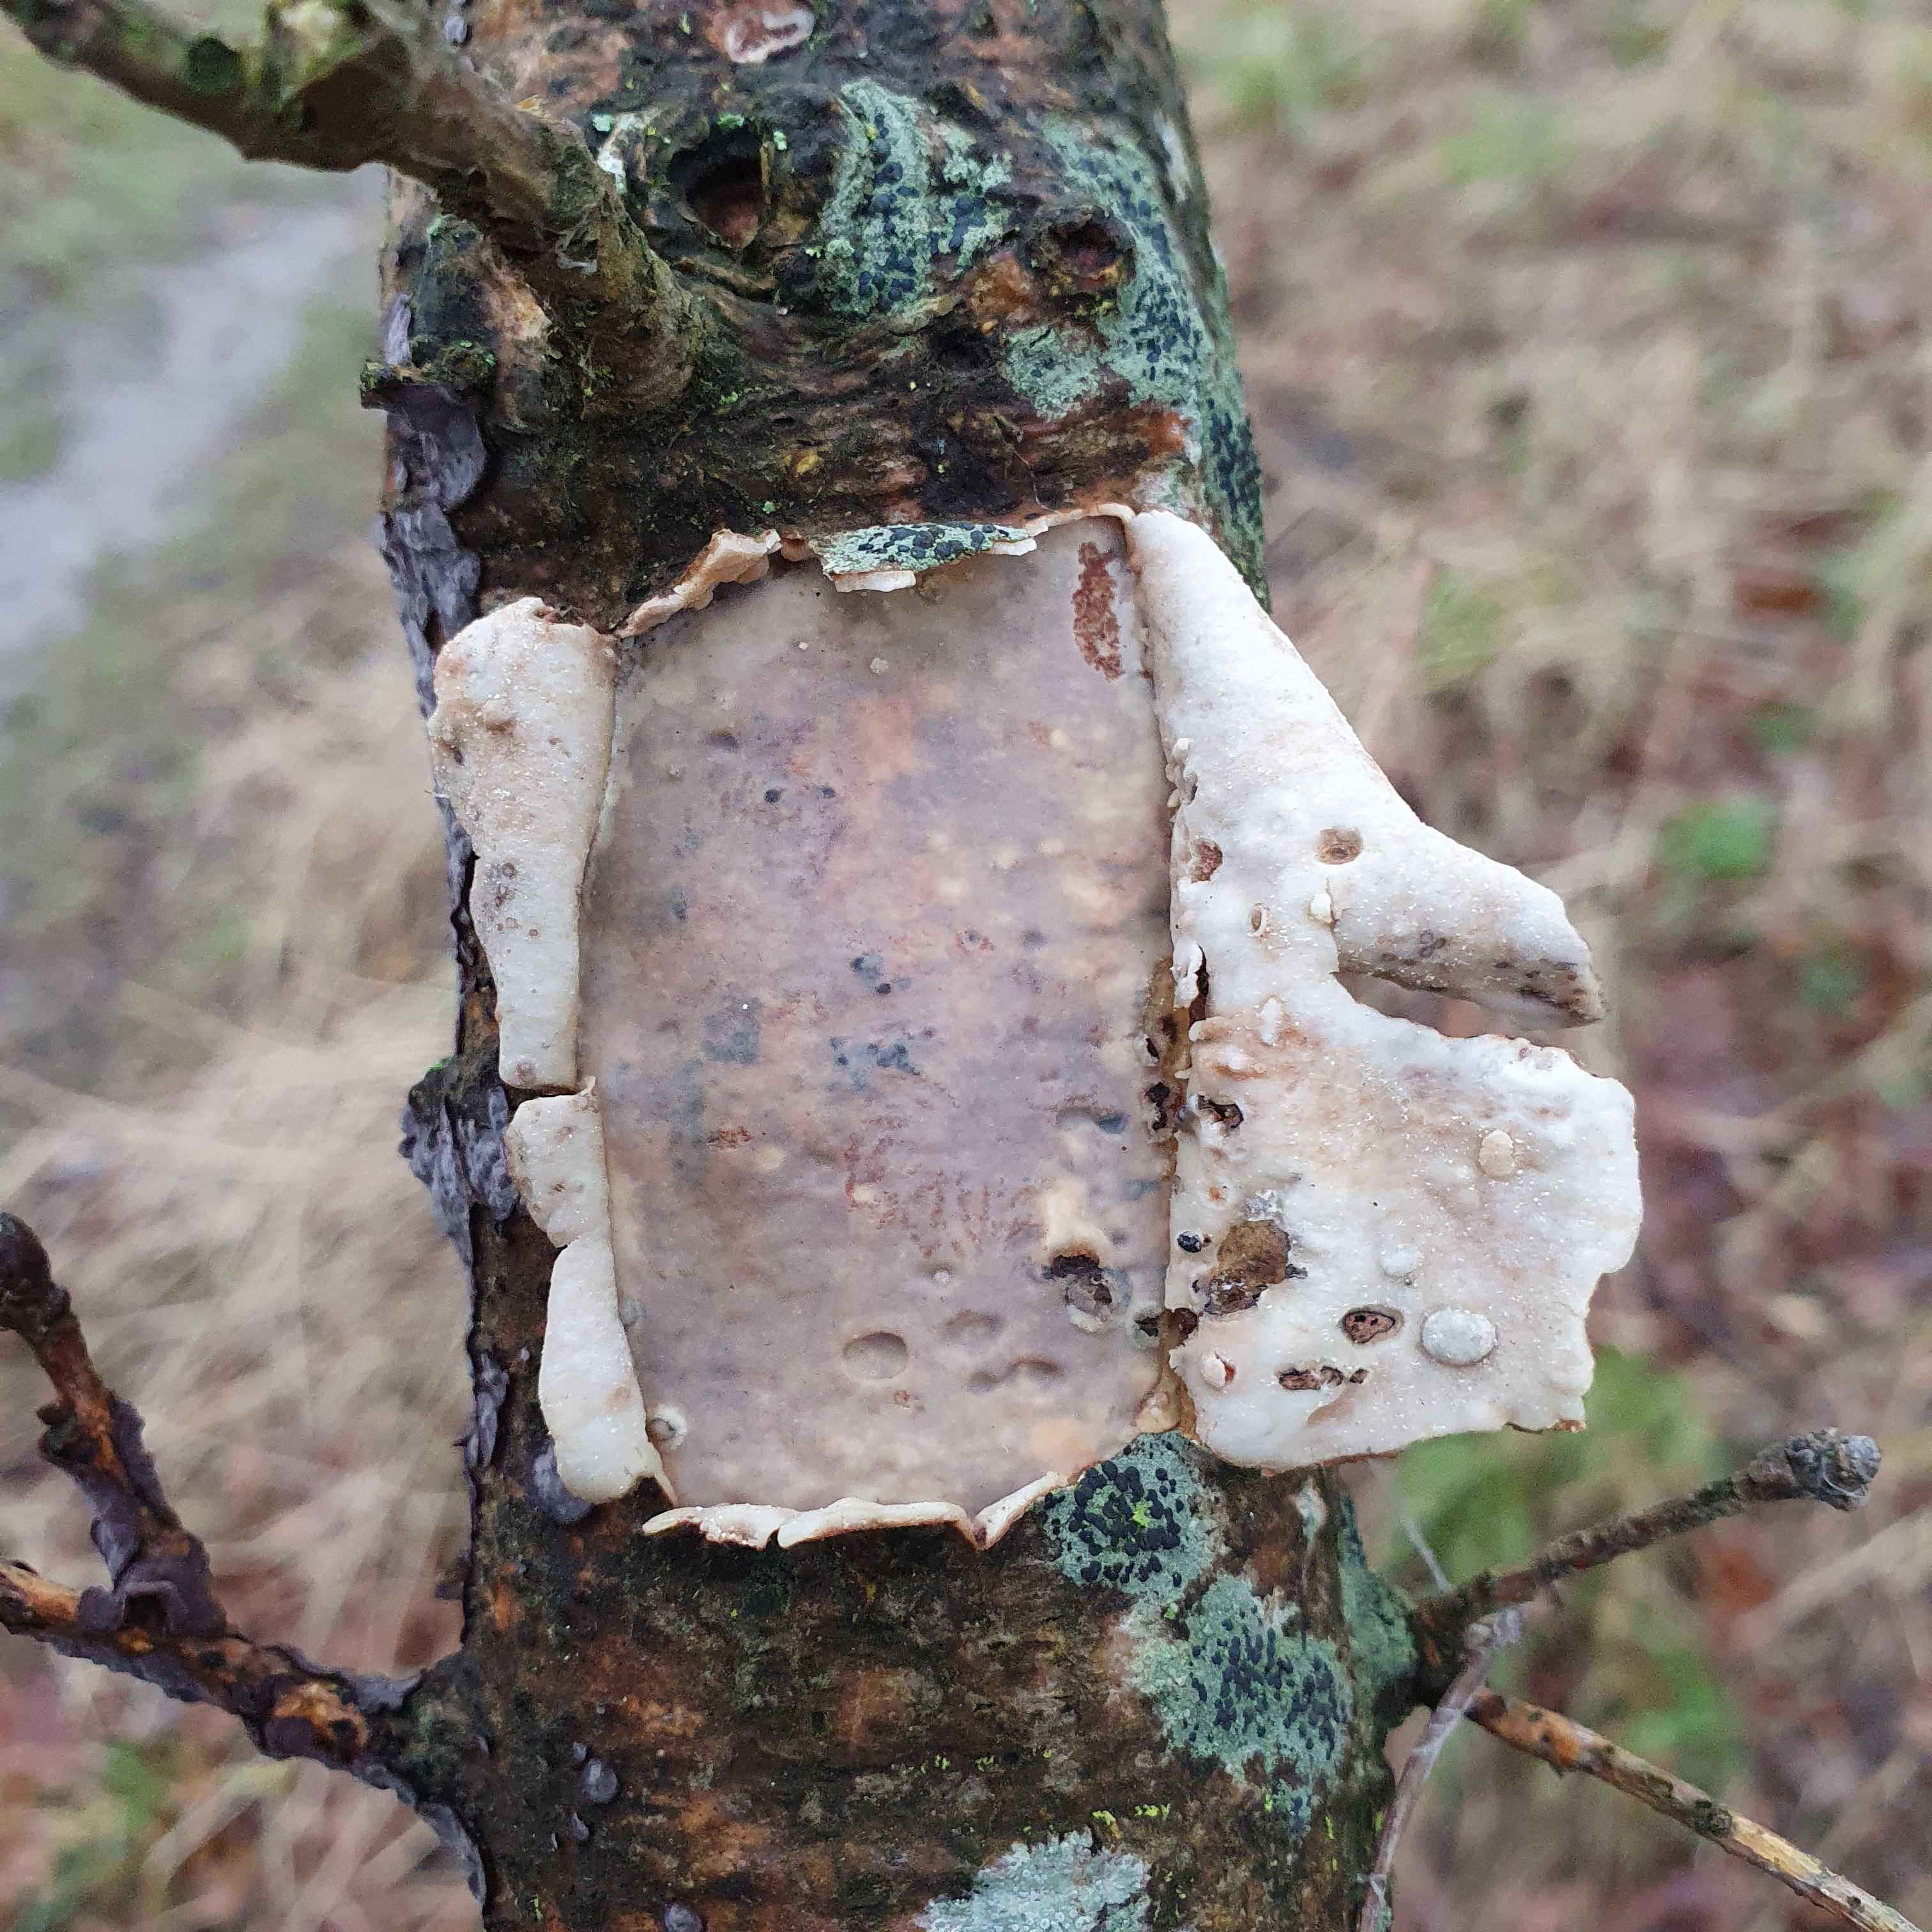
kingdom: Fungi
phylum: Basidiomycota
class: Agaricomycetes
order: Corticiales
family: Vuilleminiaceae
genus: Vuilleminia
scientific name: Vuilleminia comedens
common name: almindelig barksprænger
